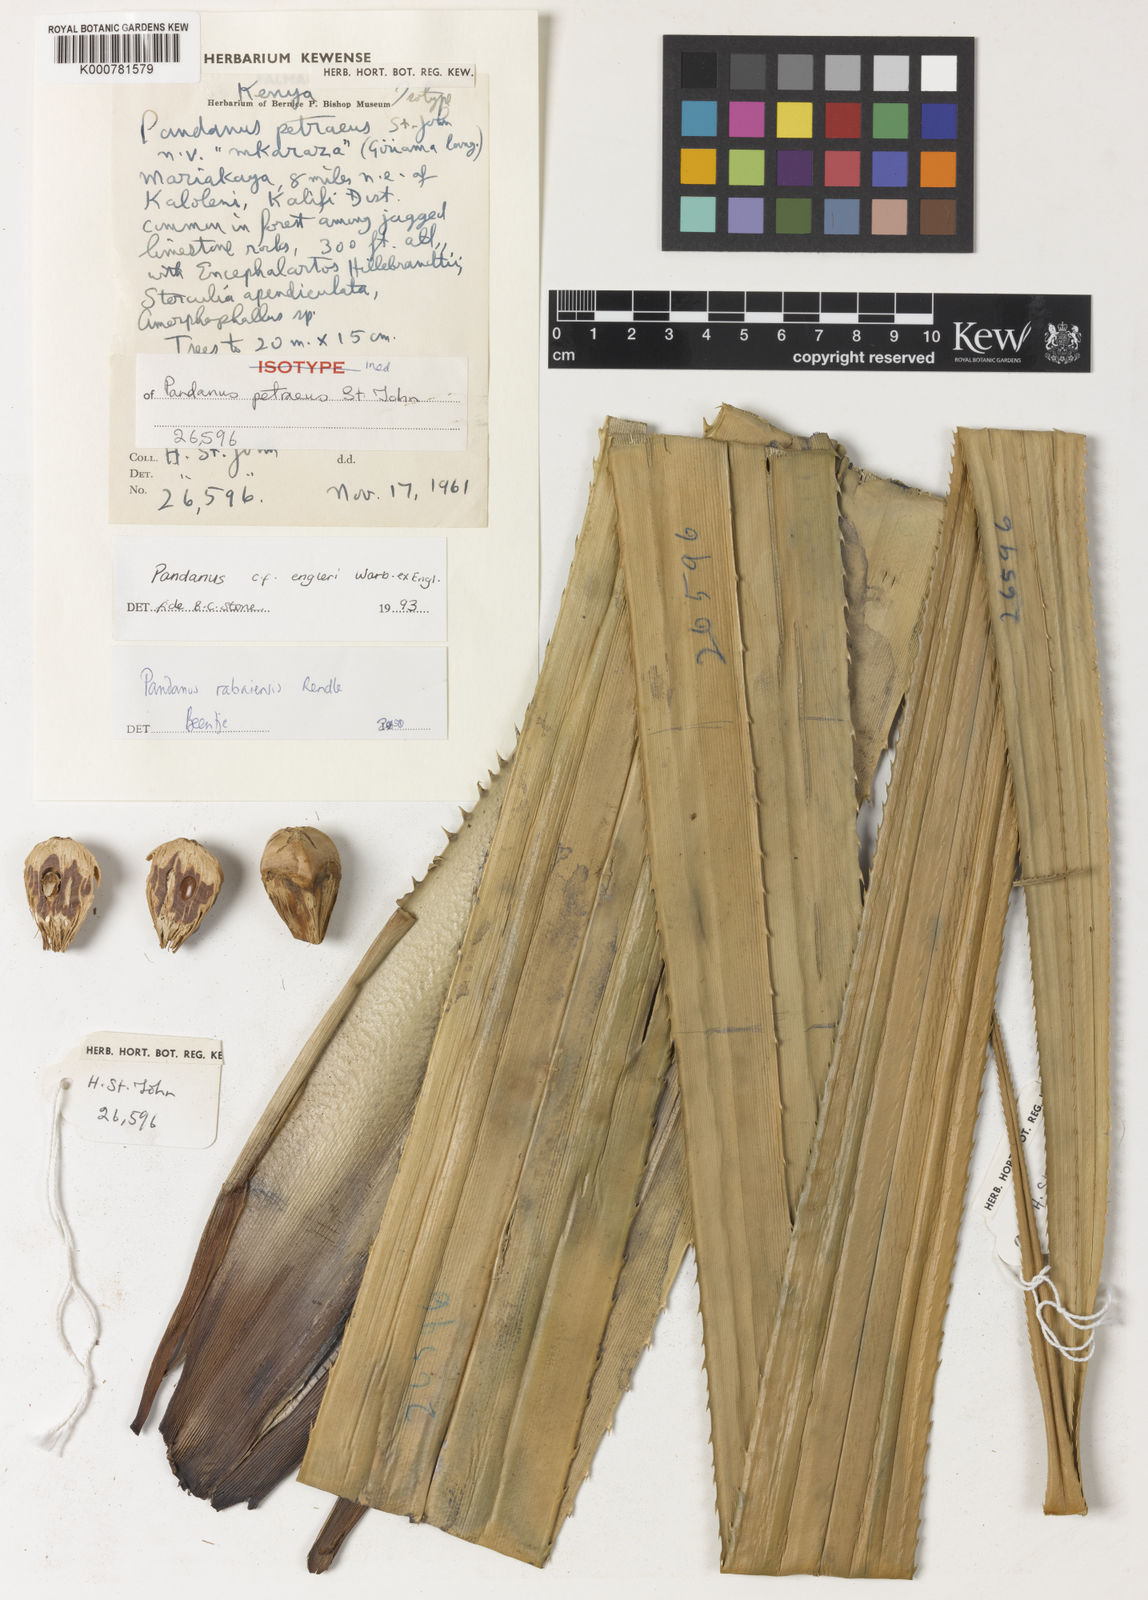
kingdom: Plantae
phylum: Tracheophyta
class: Liliopsida
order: Pandanales
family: Pandanaceae
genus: Pandanus
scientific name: Pandanus rabaiensis
